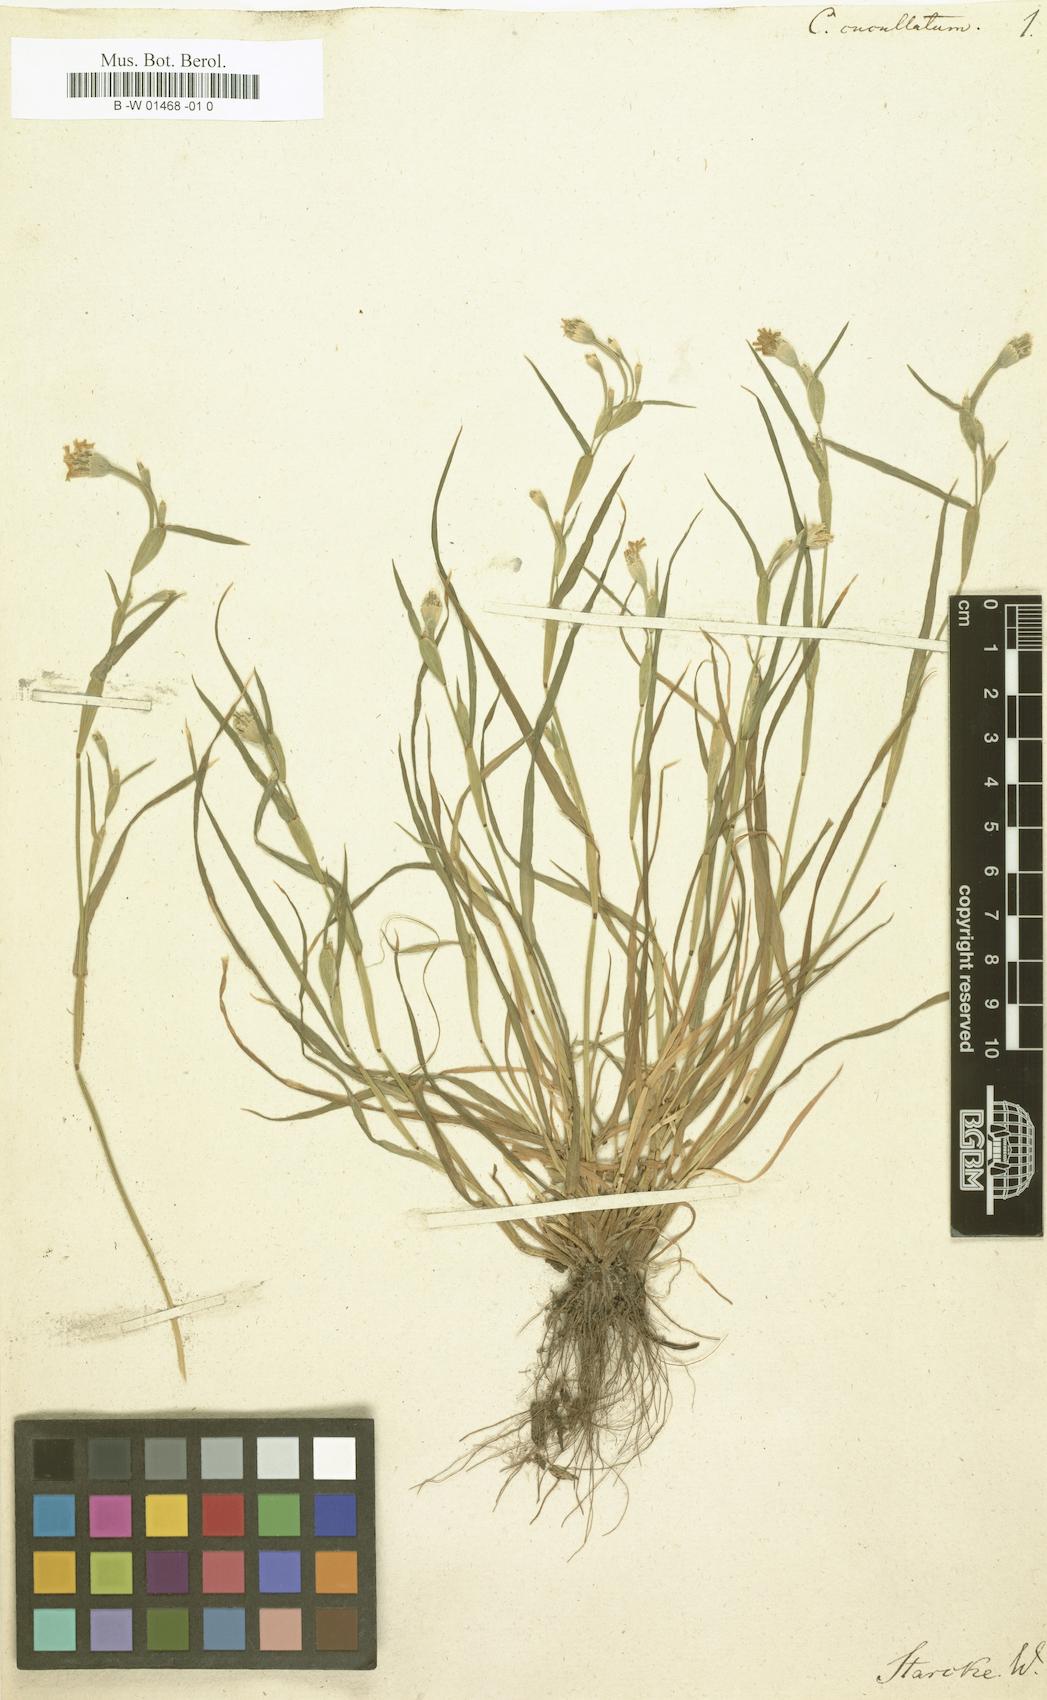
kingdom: Plantae
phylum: Tracheophyta
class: Liliopsida
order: Poales
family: Poaceae
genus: Cornucopiae
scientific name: Cornucopiae cucullatum
